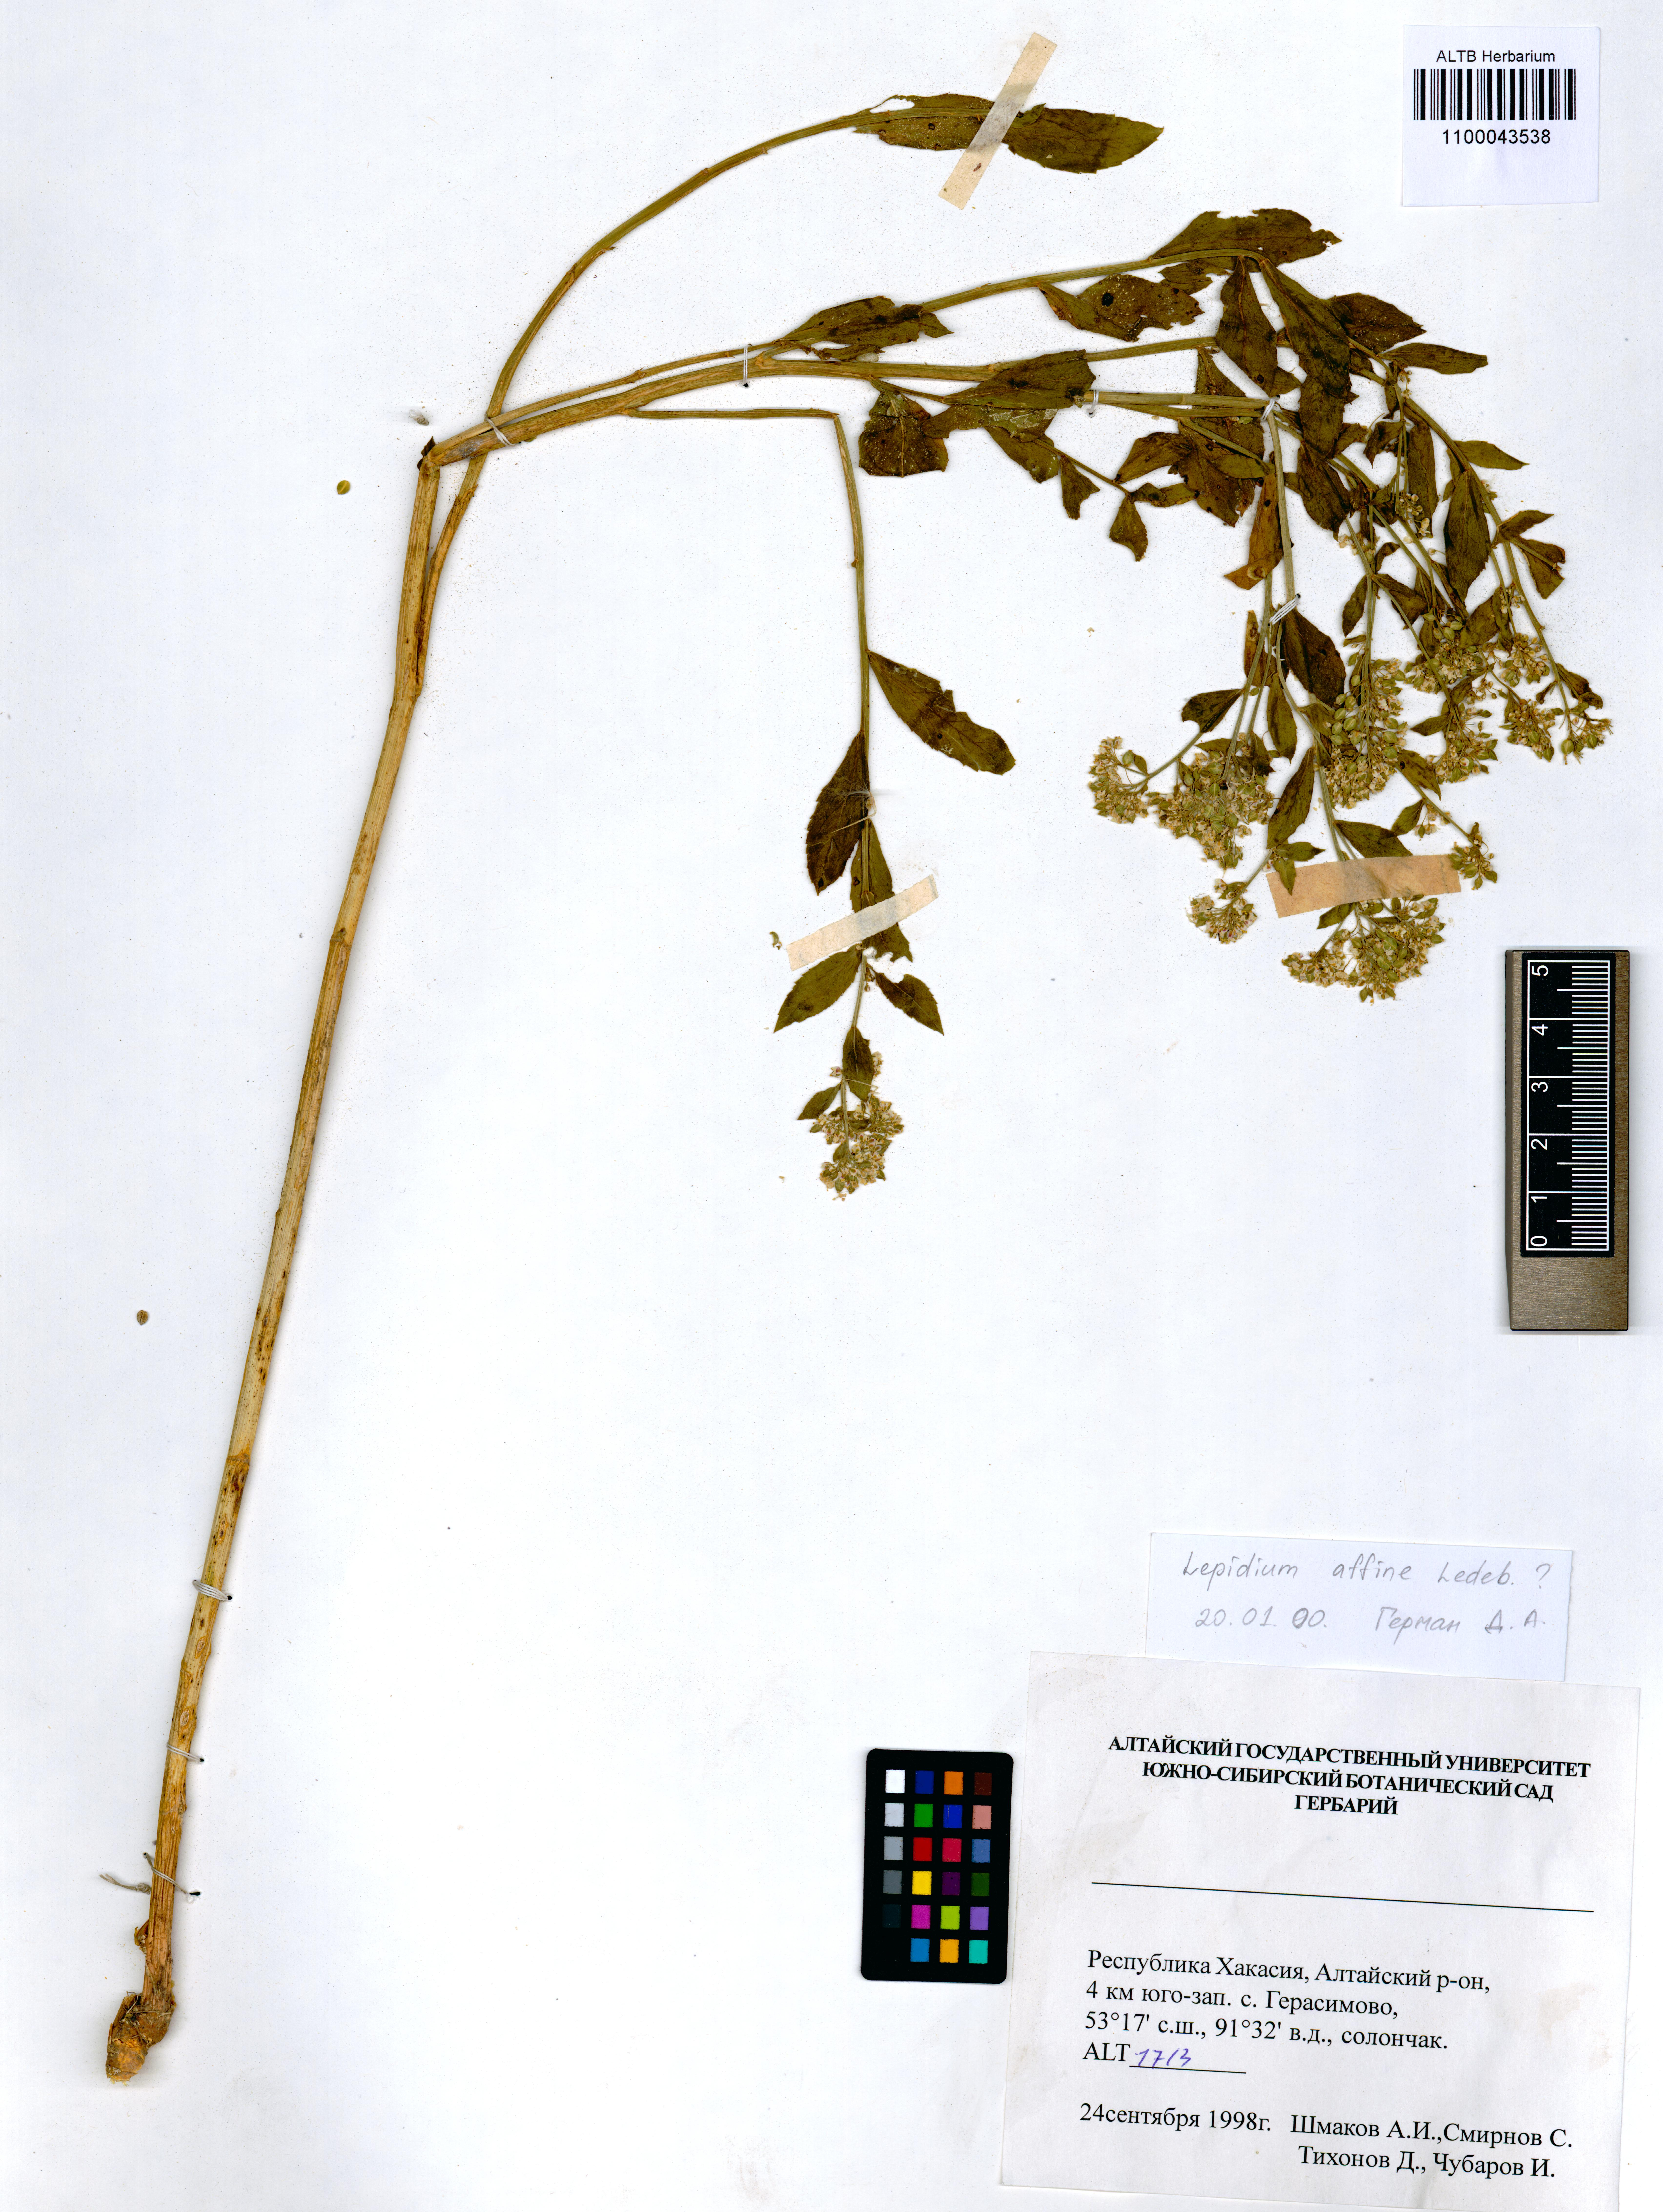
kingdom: Plantae
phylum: Tracheophyta
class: Magnoliopsida
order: Brassicales
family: Brassicaceae
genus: Lepidium
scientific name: Lepidium latifolium
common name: Dittander
